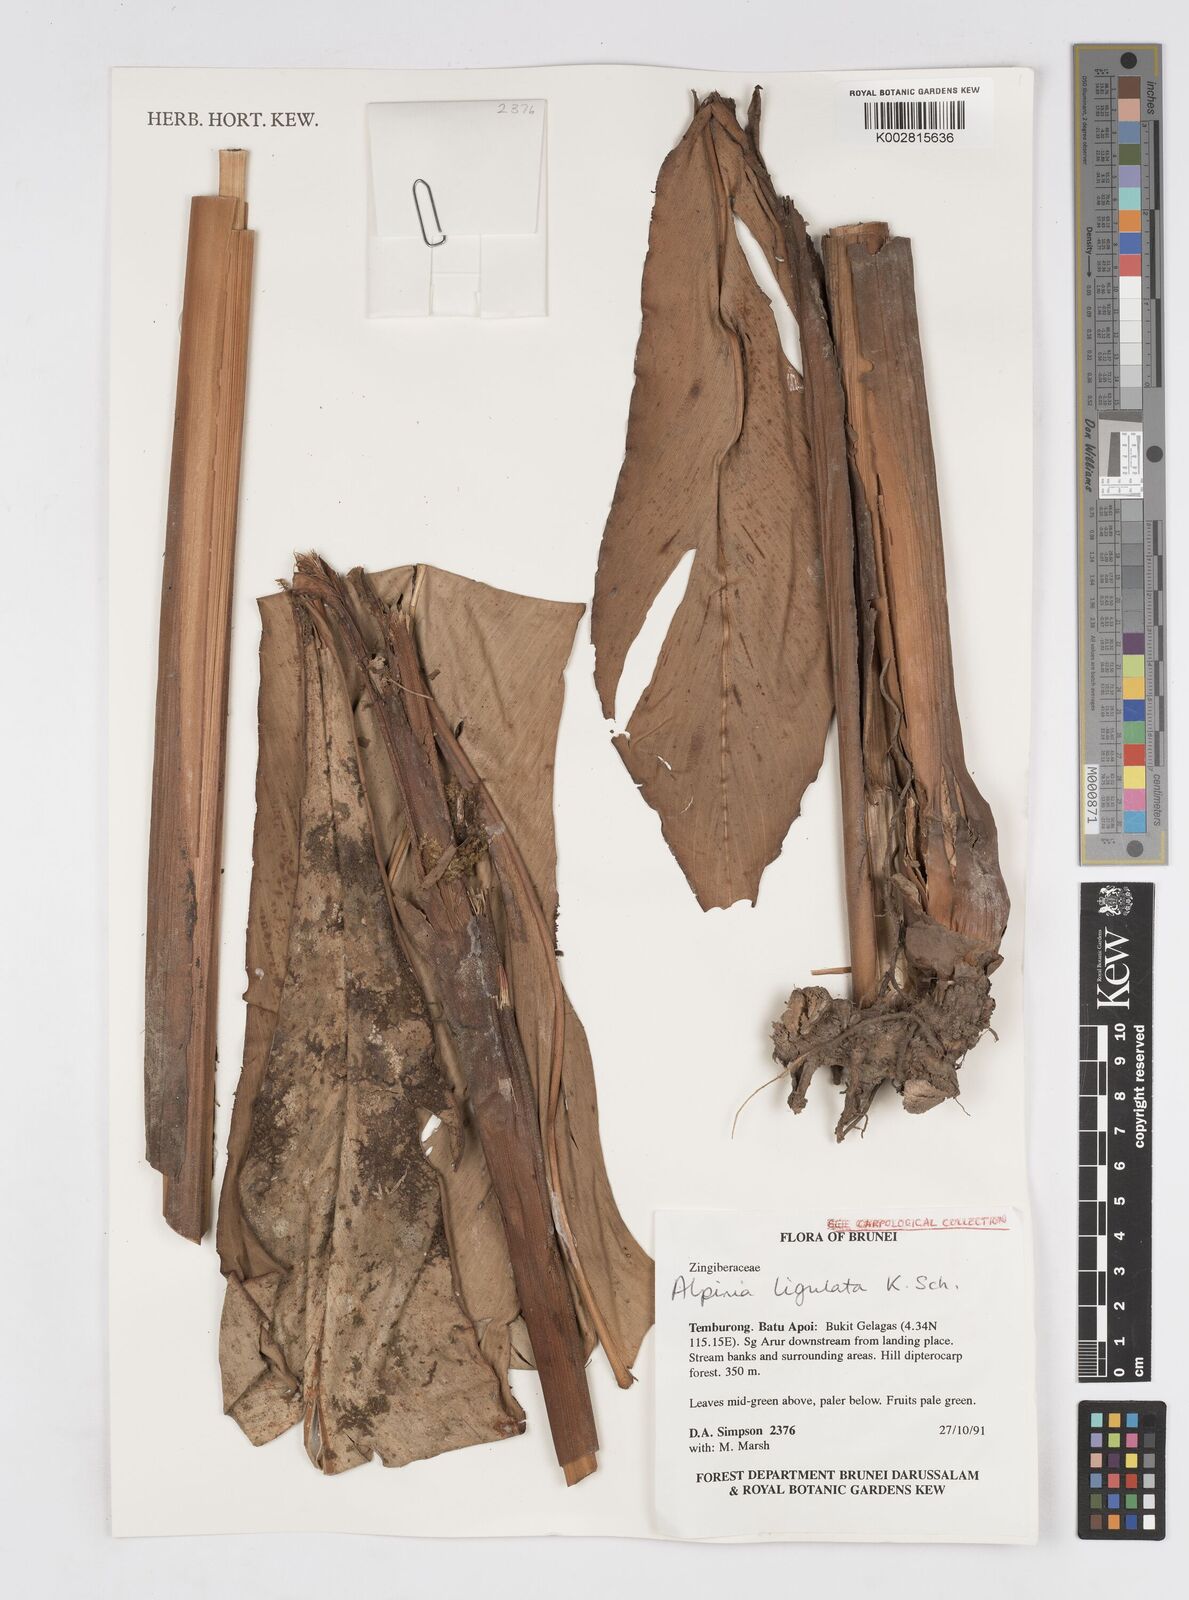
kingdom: Plantae
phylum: Tracheophyta
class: Liliopsida
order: Zingiberales
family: Zingiberaceae
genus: Alpinia
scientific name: Alpinia ligulata
